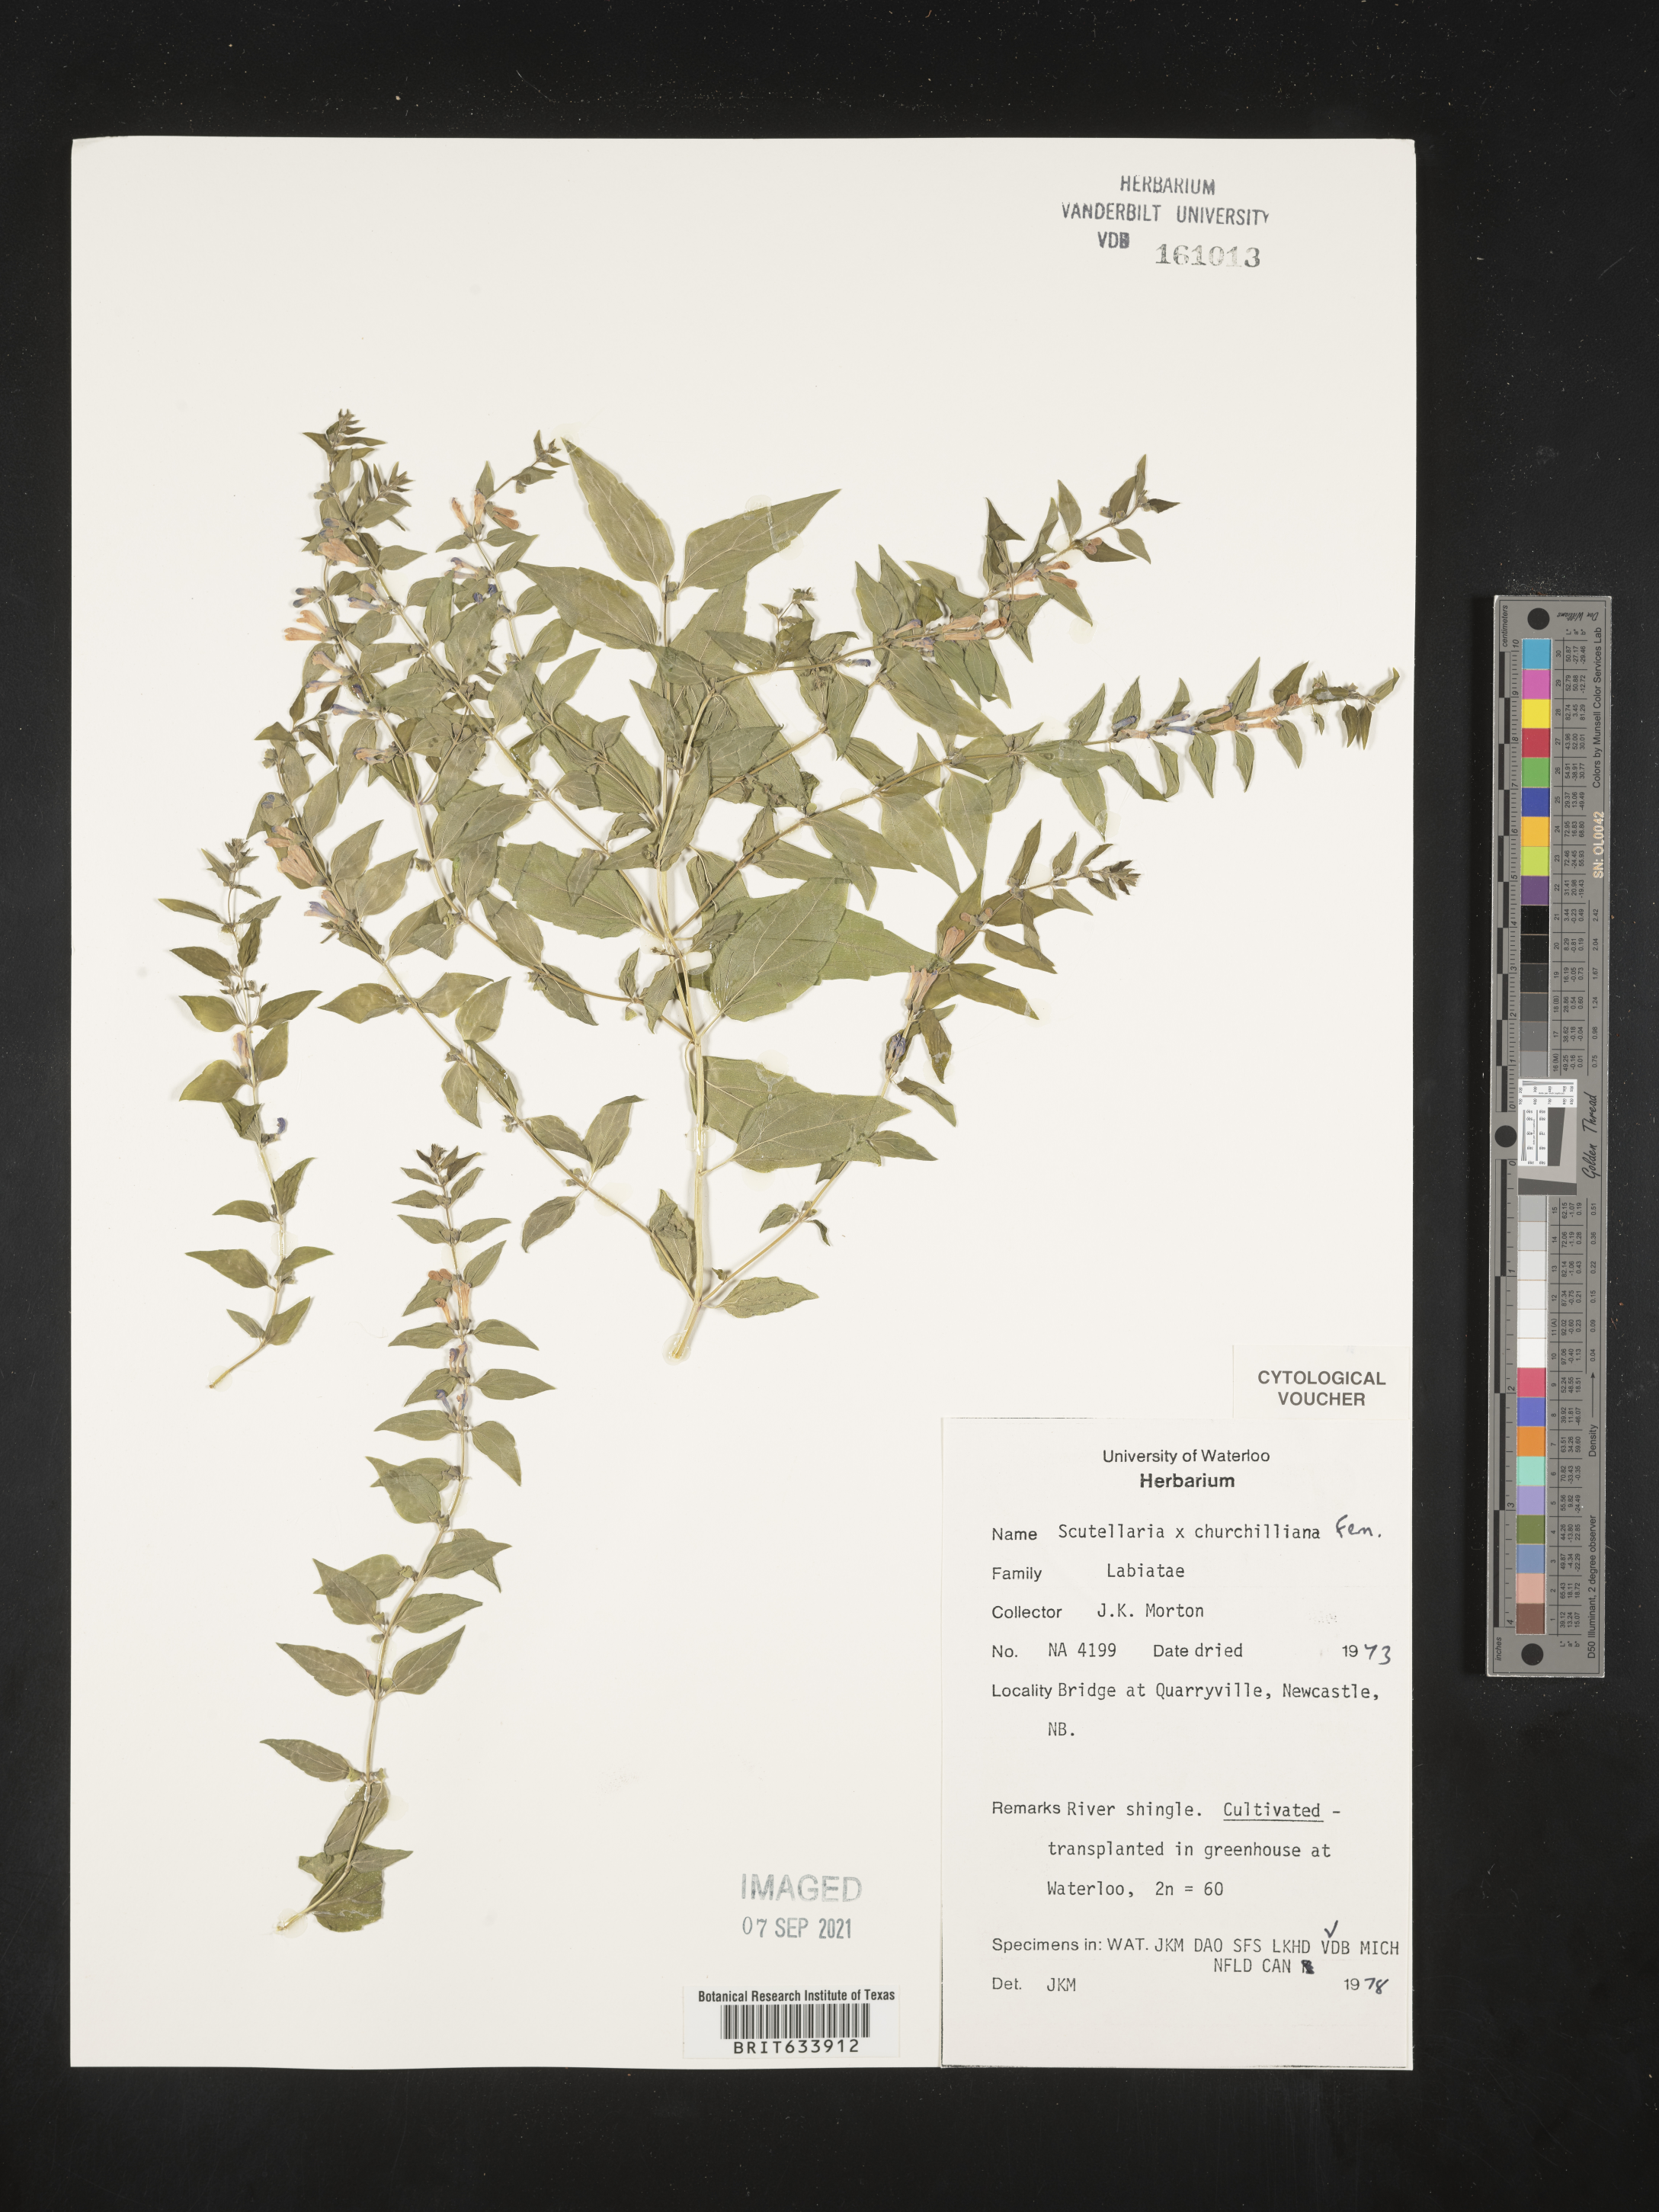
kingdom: Plantae
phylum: Tracheophyta
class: Magnoliopsida
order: Lamiales
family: Lamiaceae
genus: Scutellaria
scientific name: Scutellaria
